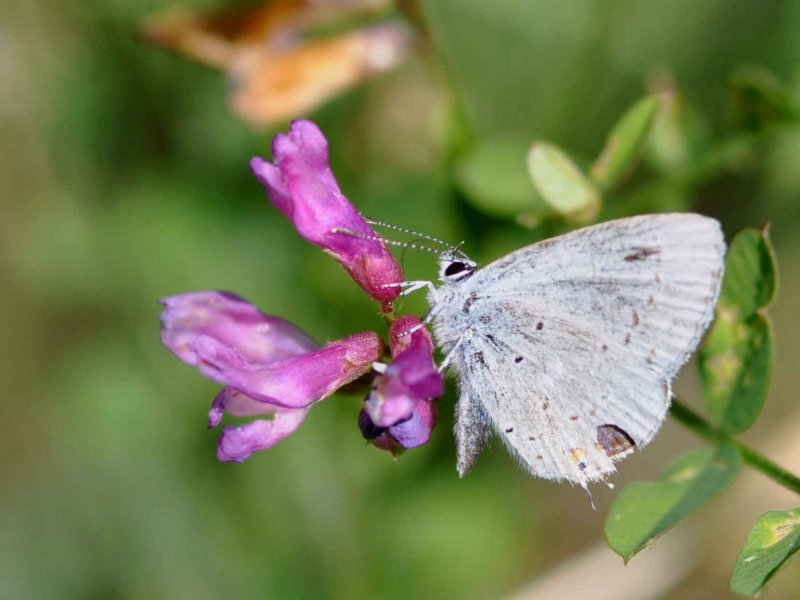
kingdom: Animalia
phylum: Arthropoda
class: Insecta
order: Lepidoptera
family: Lycaenidae
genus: Elkalyce
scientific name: Elkalyce amyntula
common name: Western Tailed-Blue
